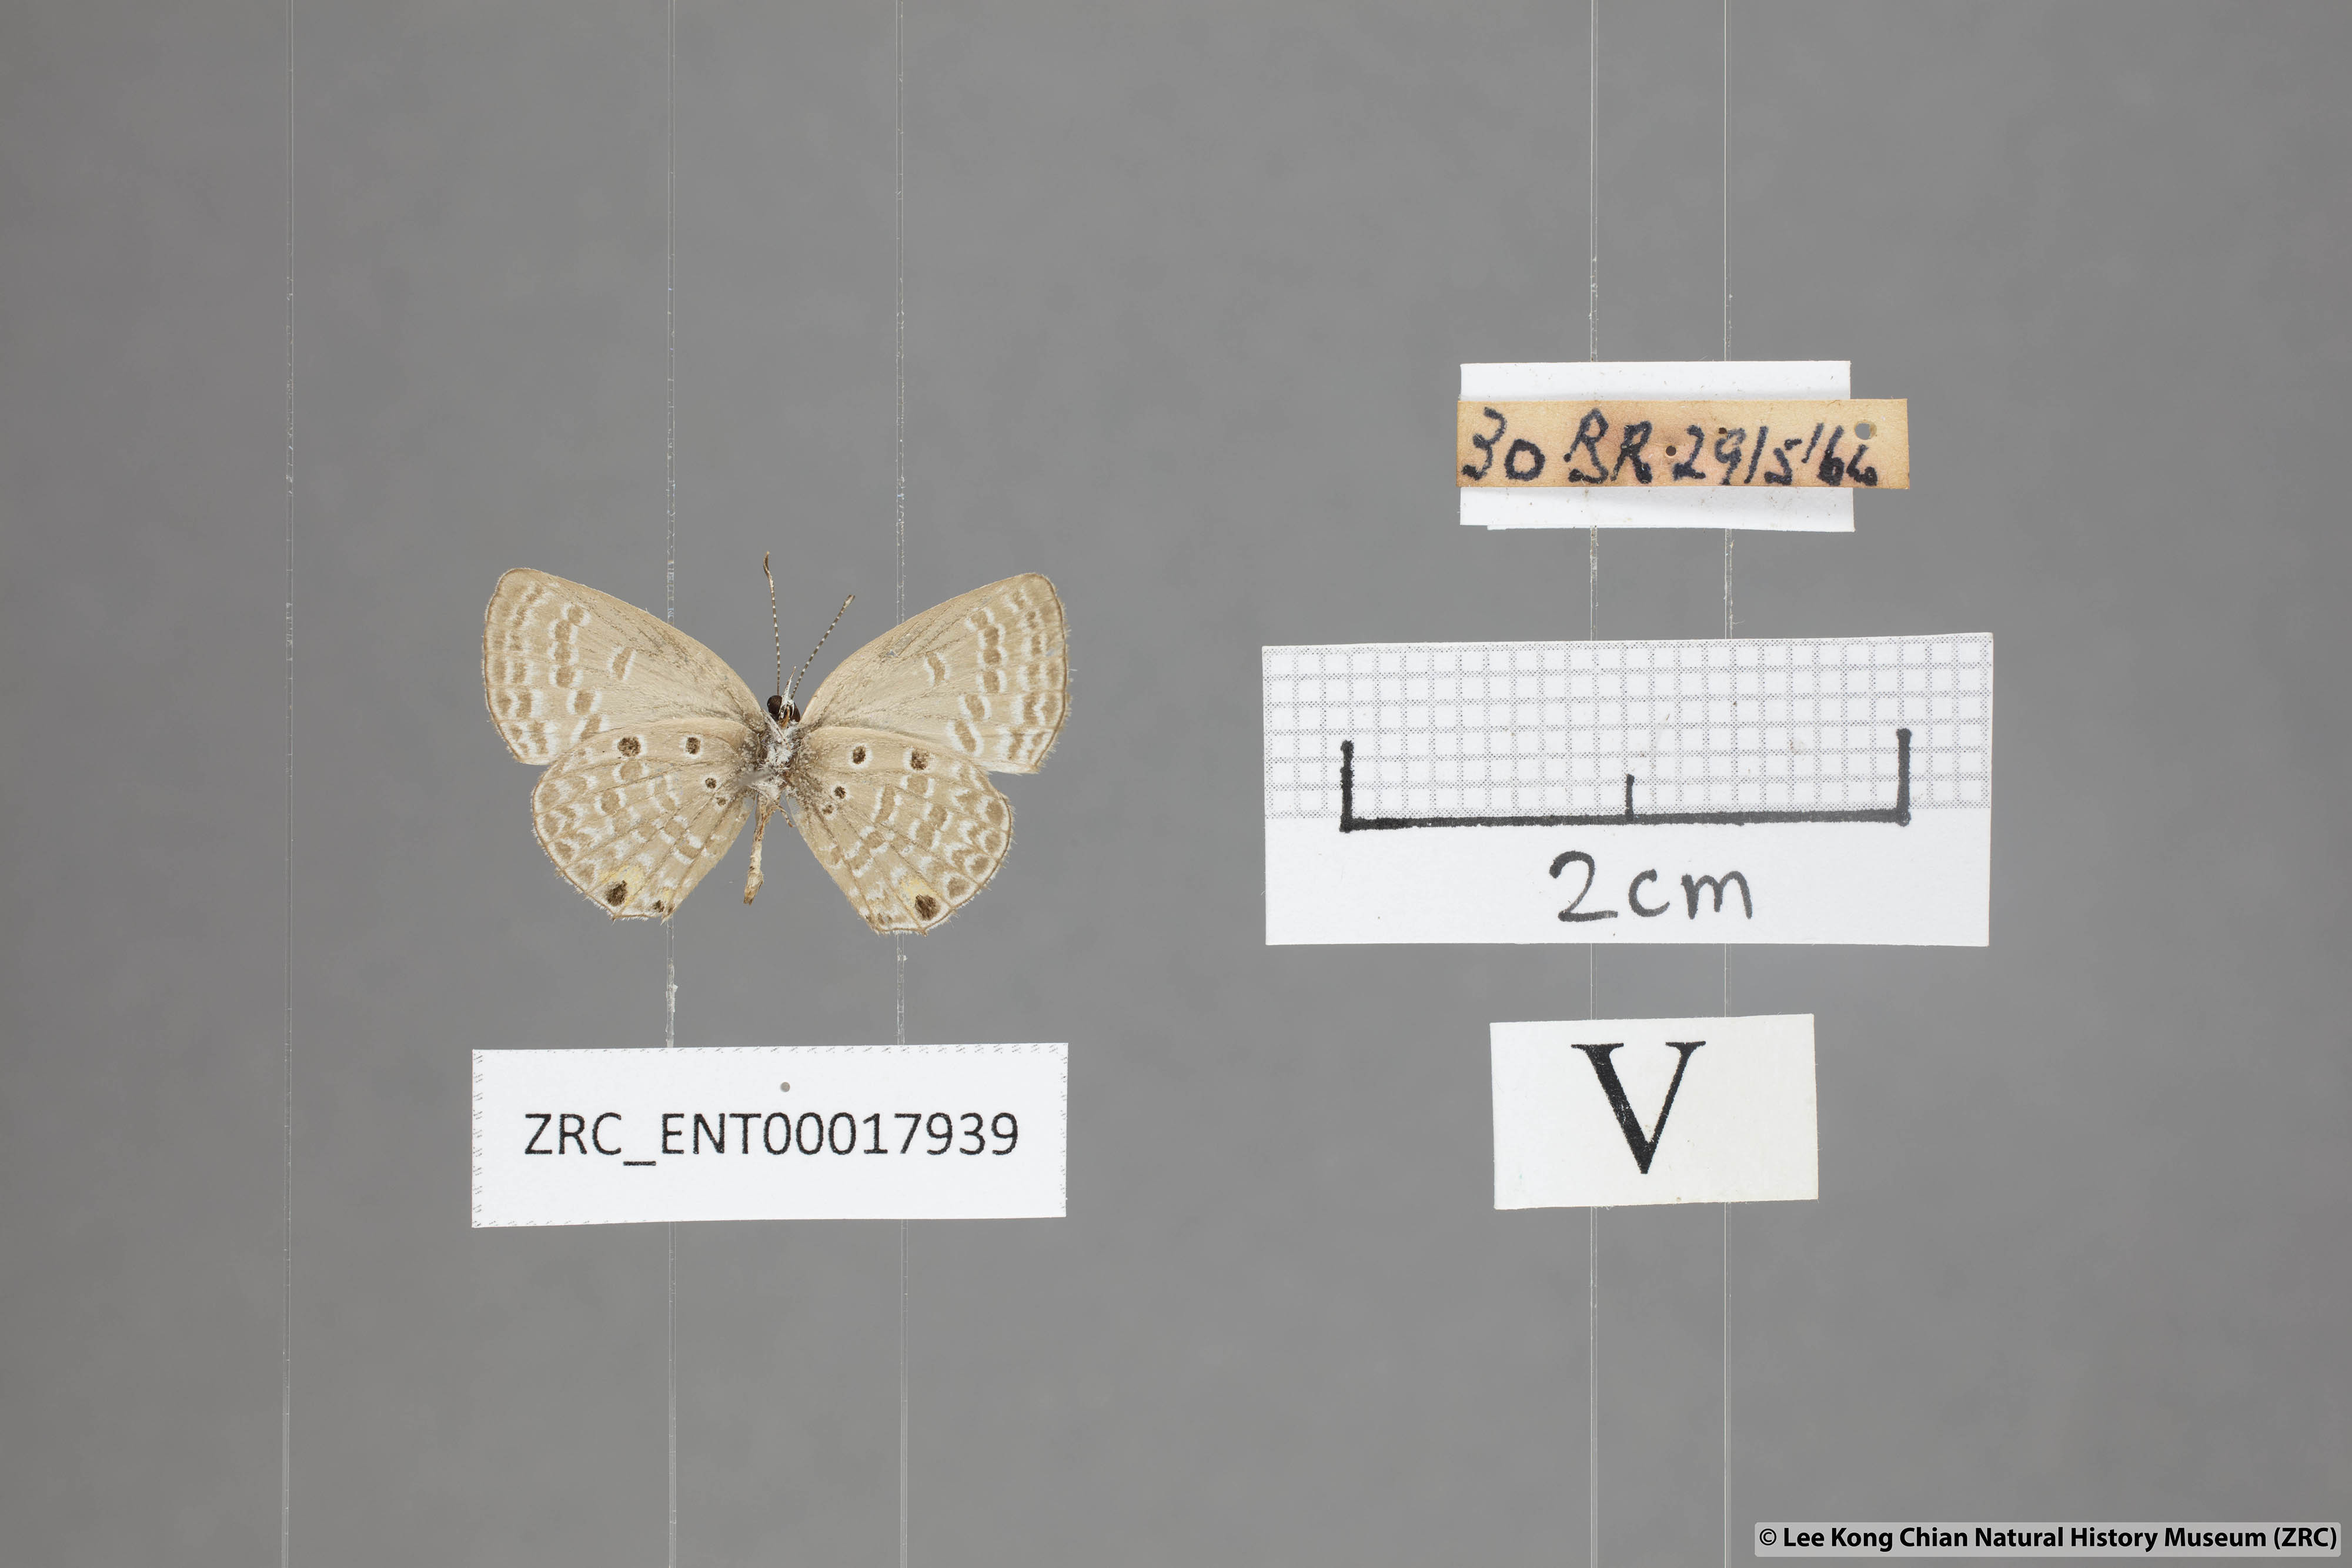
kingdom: Animalia
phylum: Arthropoda
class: Insecta
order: Lepidoptera
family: Lycaenidae
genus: Edales
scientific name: Edales pandava
